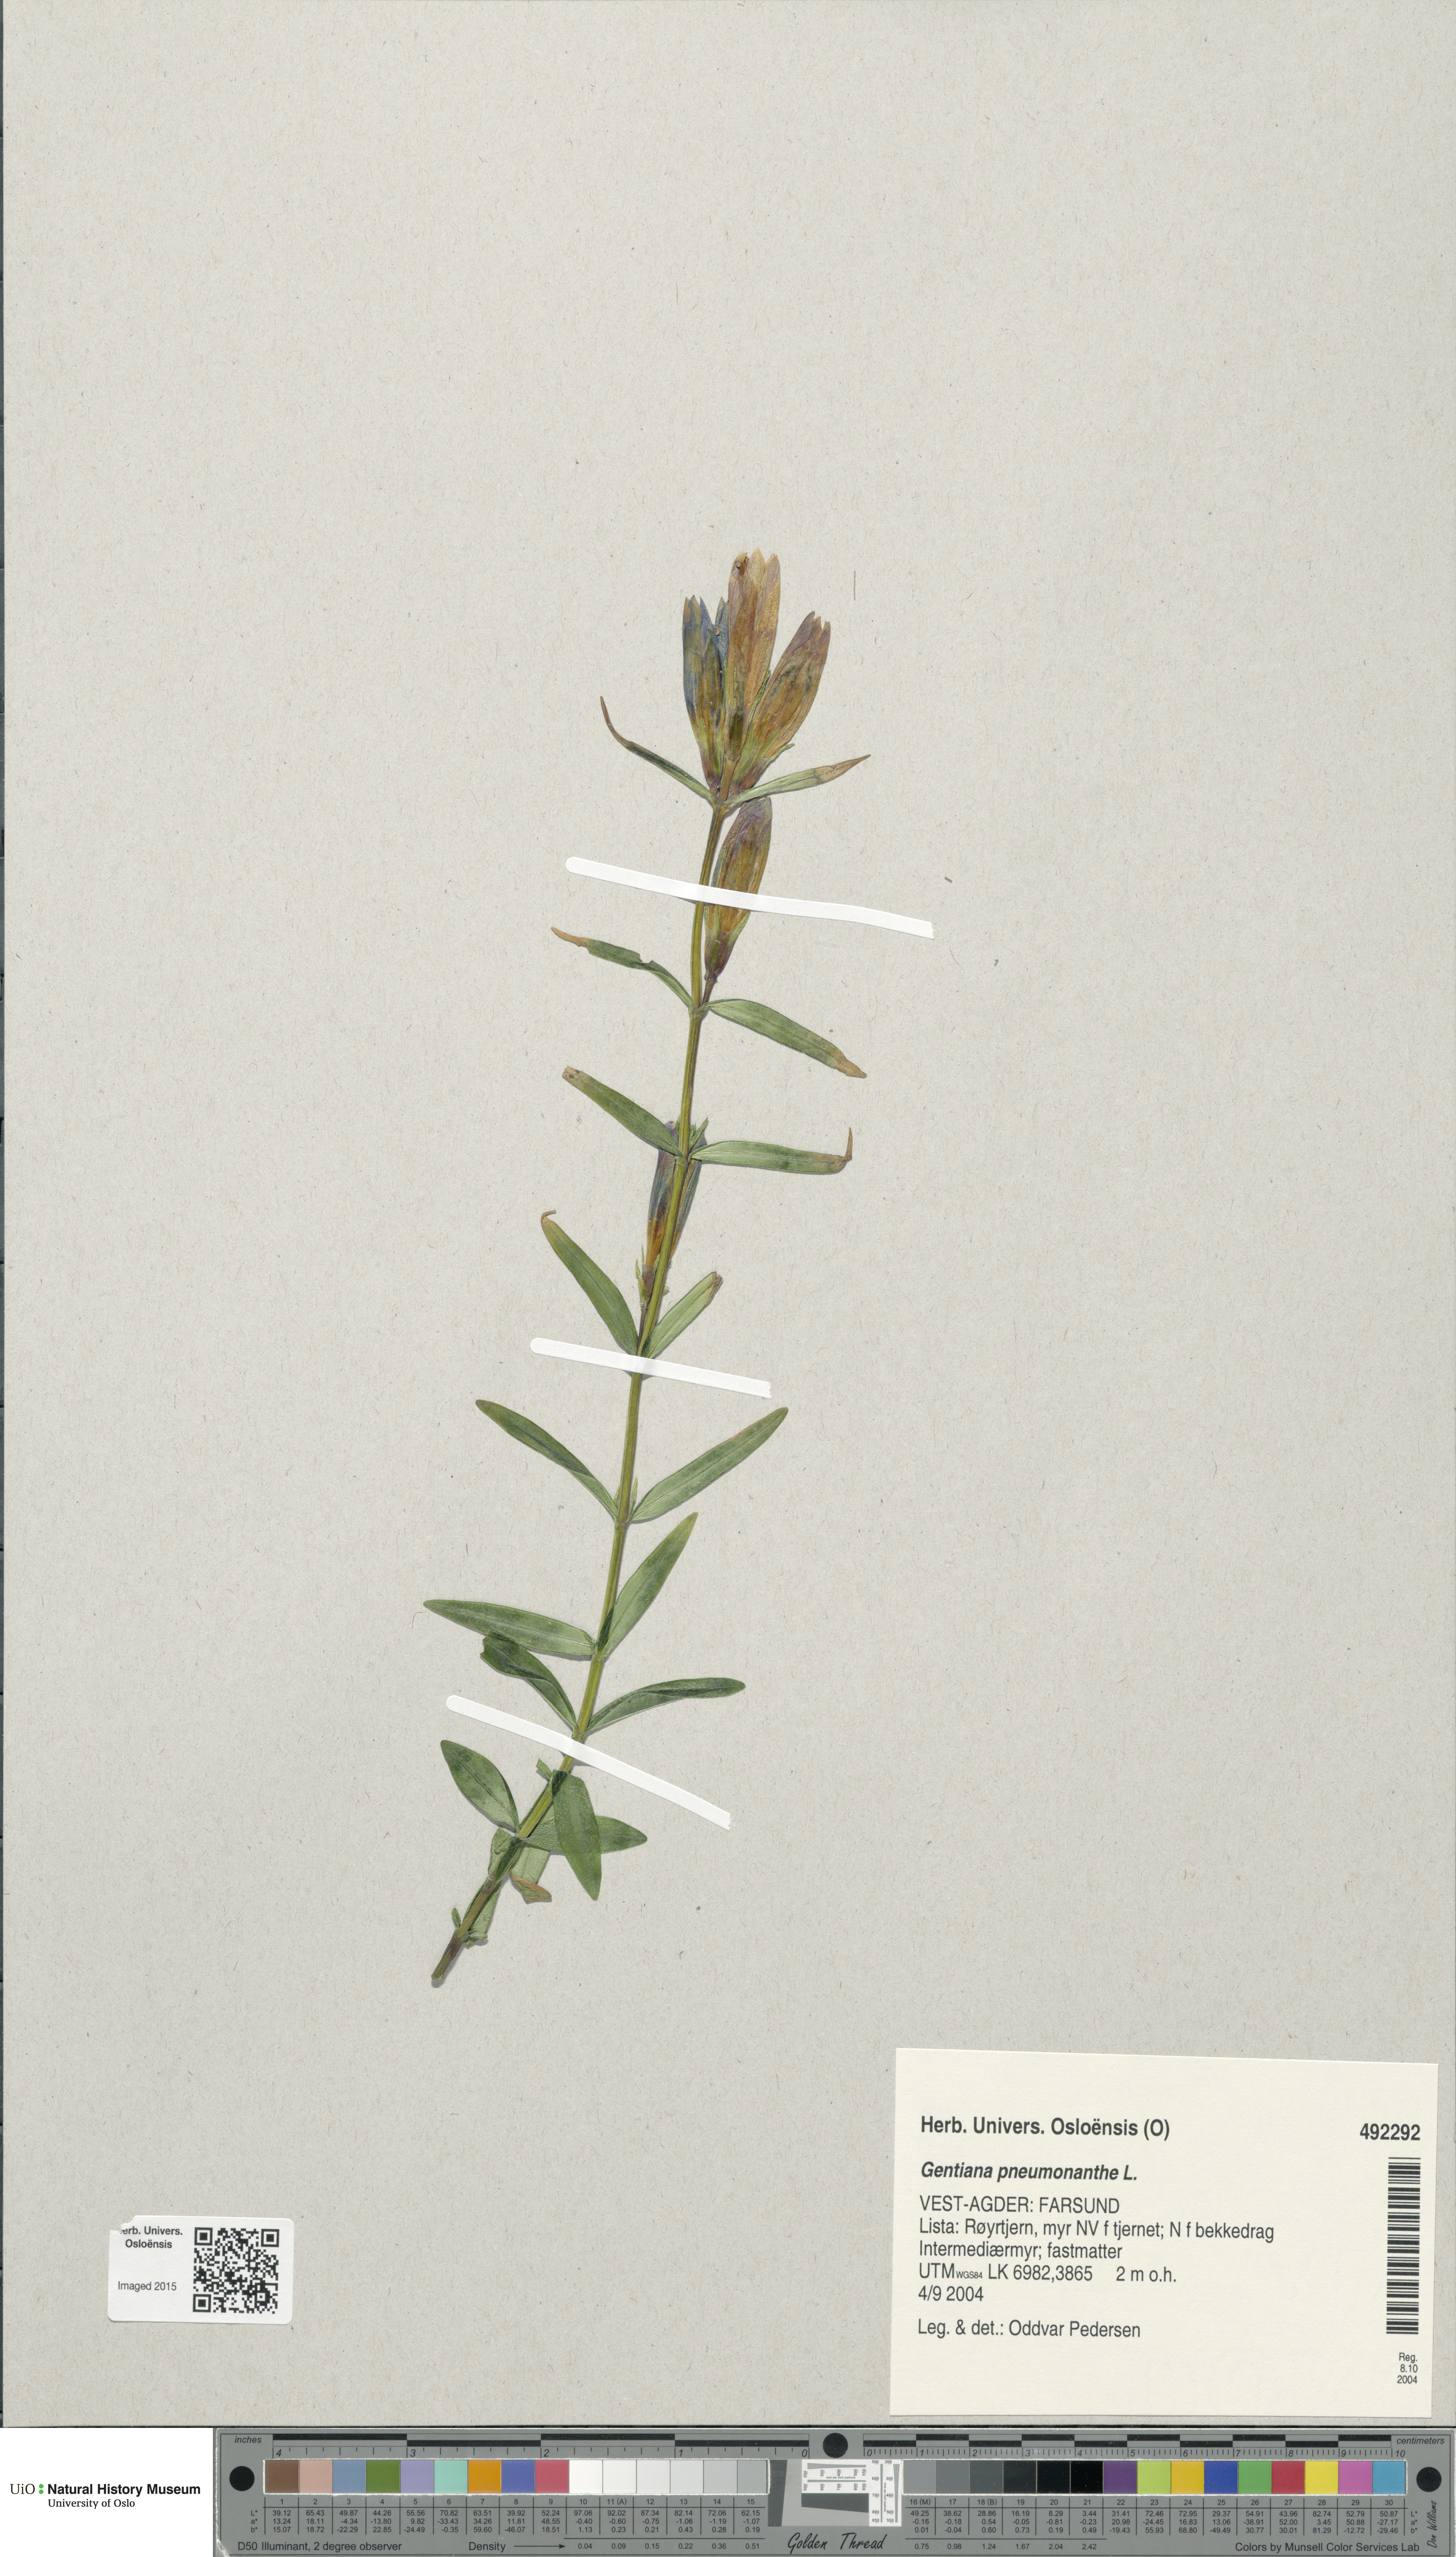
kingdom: Plantae
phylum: Tracheophyta
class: Magnoliopsida
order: Gentianales
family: Gentianaceae
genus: Gentiana
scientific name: Gentiana pneumonanthe
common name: Marsh gentian
